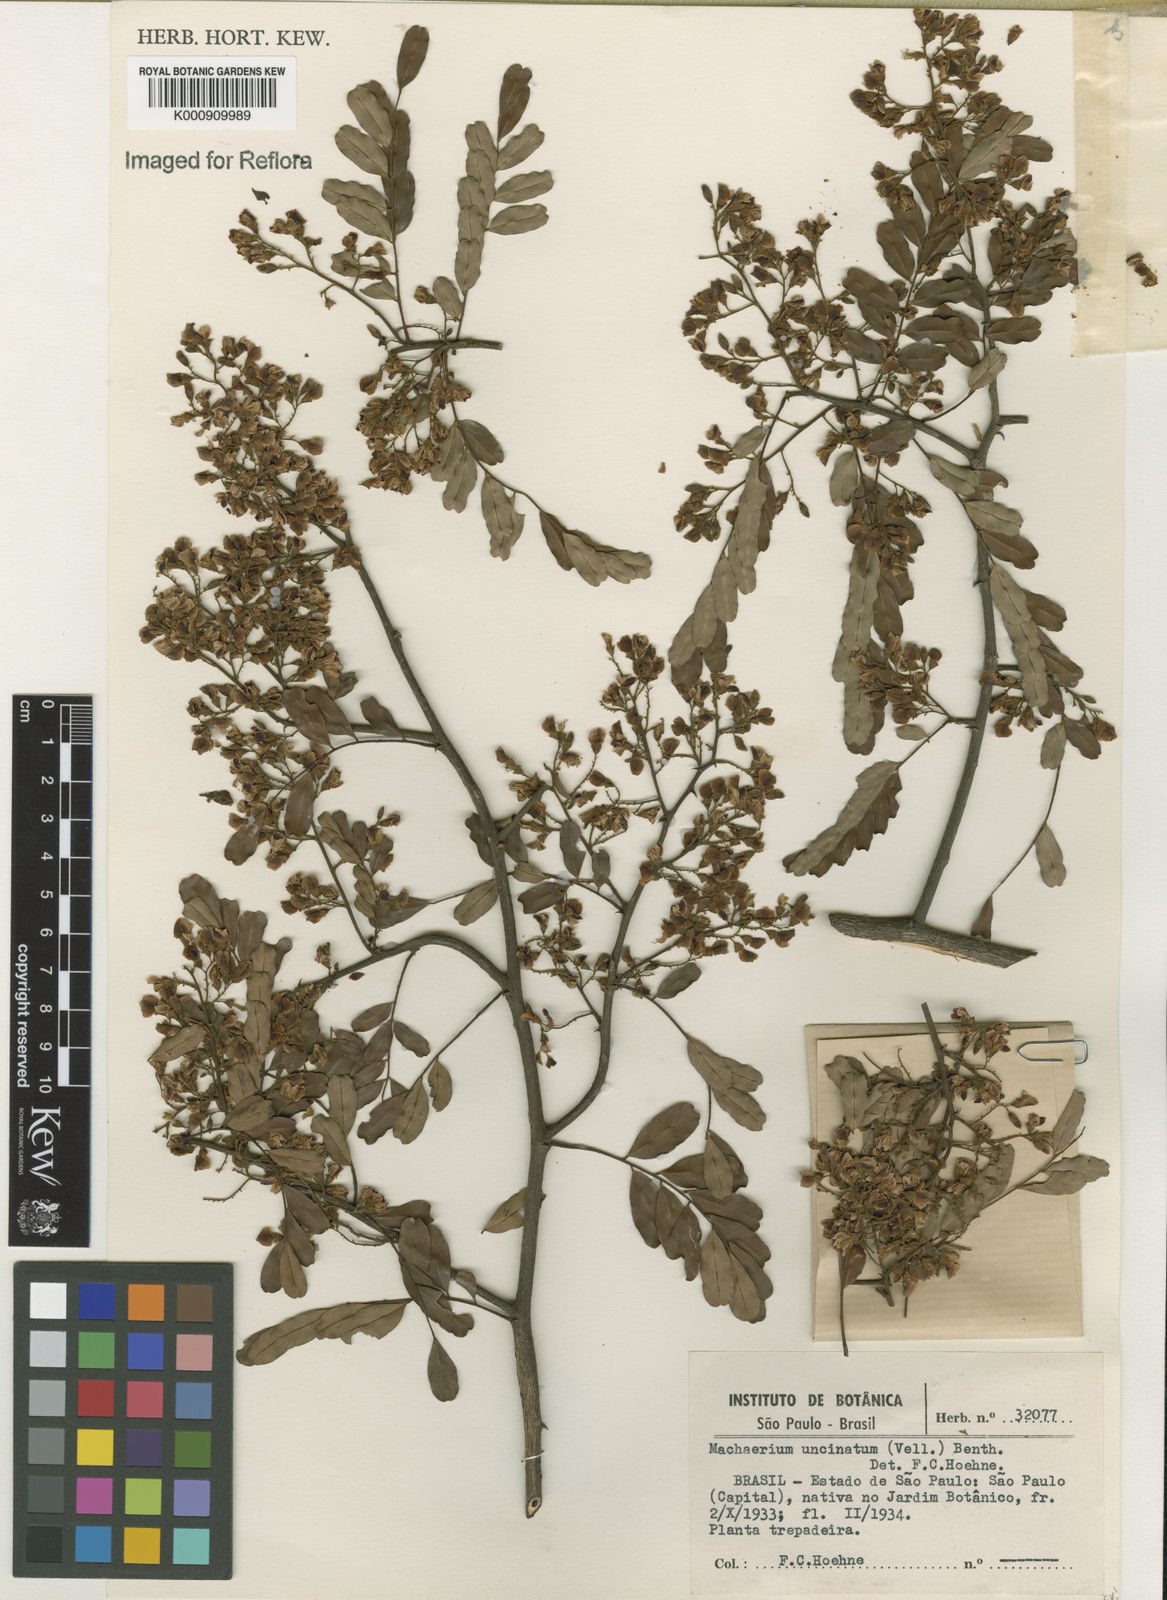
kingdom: Plantae
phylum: Tracheophyta
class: Magnoliopsida
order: Fabales
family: Fabaceae
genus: Machaerium
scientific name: Machaerium uncinatum
